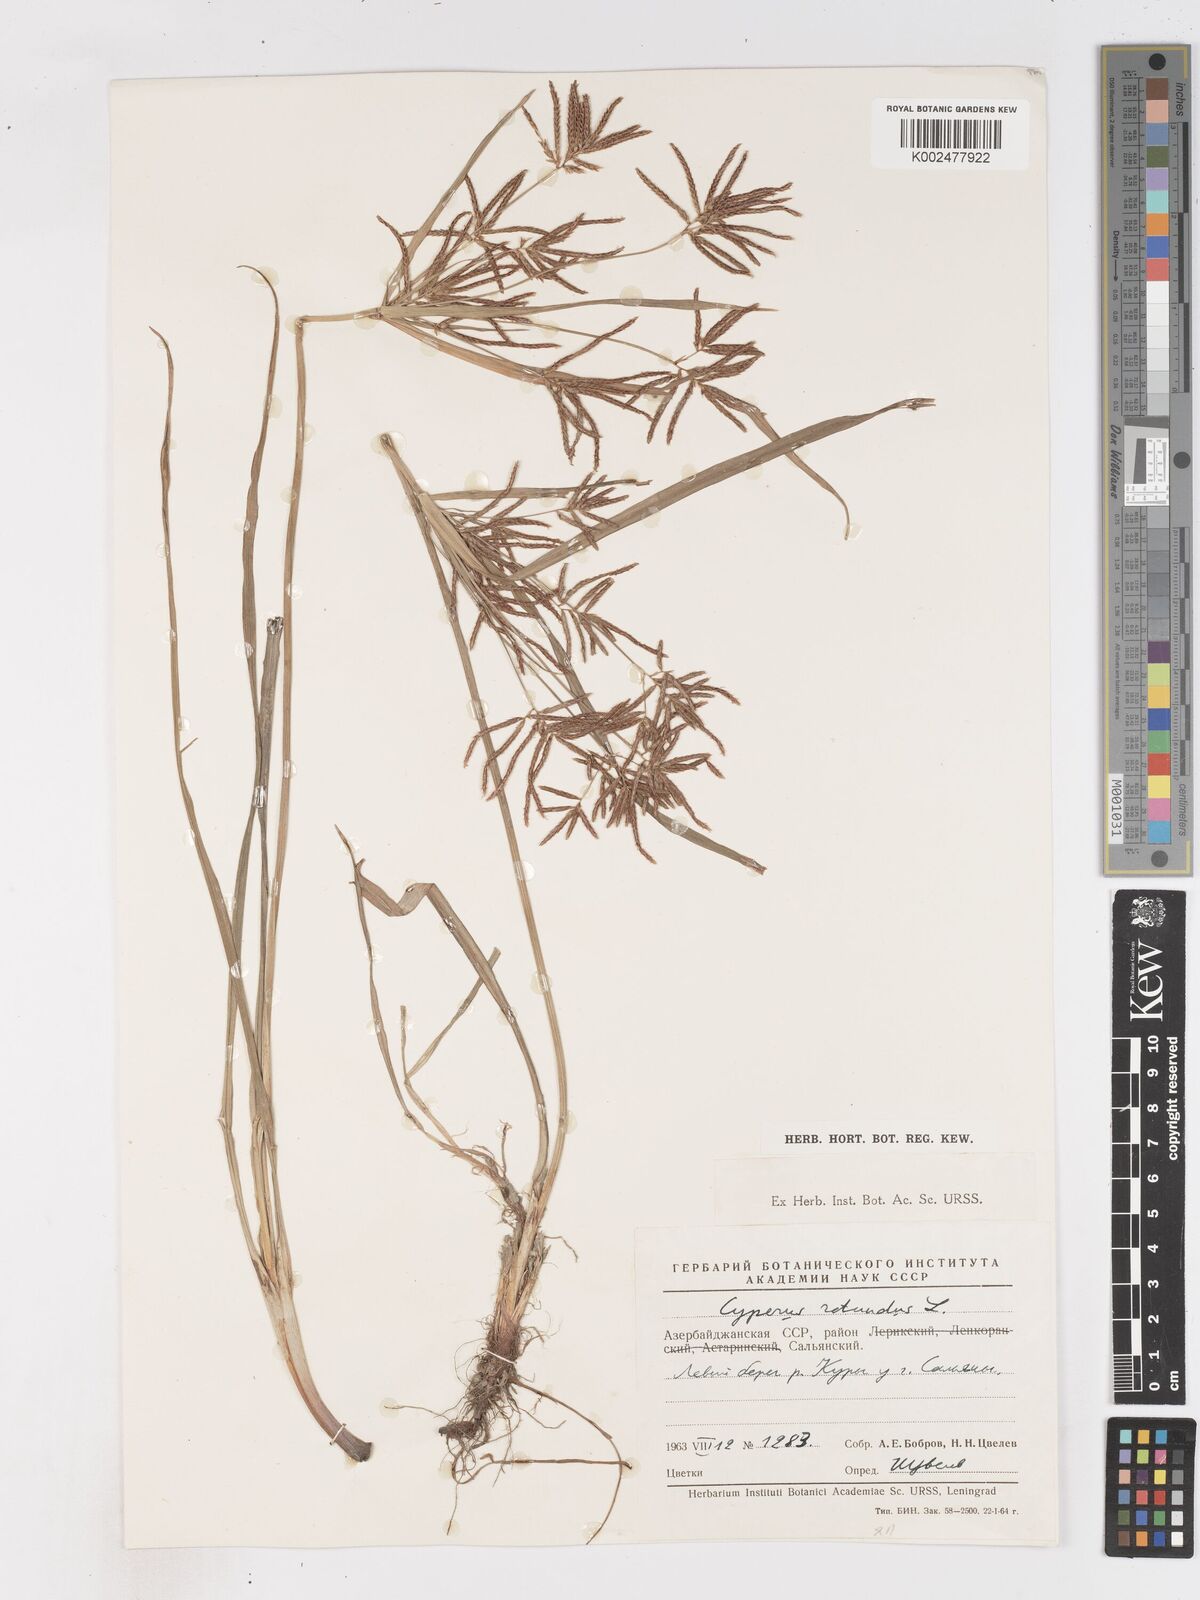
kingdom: Plantae
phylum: Tracheophyta
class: Liliopsida
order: Poales
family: Cyperaceae
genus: Cyperus
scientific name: Cyperus rotundus
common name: Nutgrass
